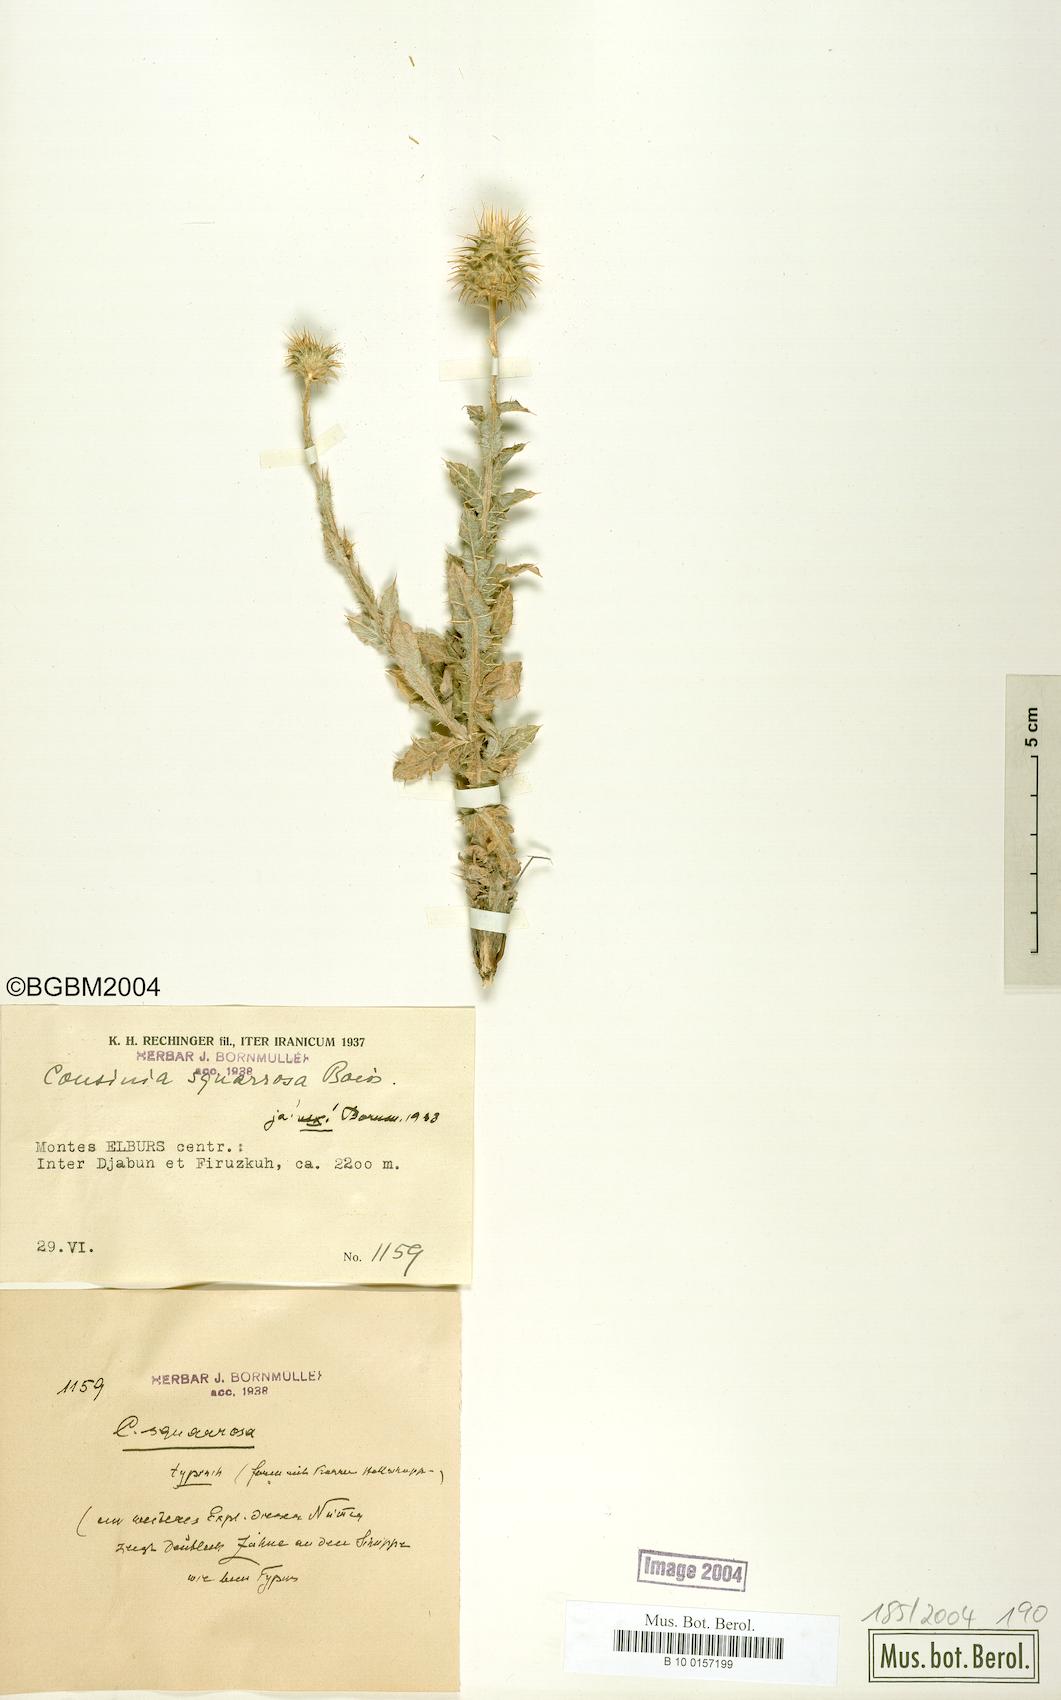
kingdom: Plantae
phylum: Tracheophyta
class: Magnoliopsida
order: Asterales
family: Asteraceae
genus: Cousinia
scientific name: Cousinia calocephala
